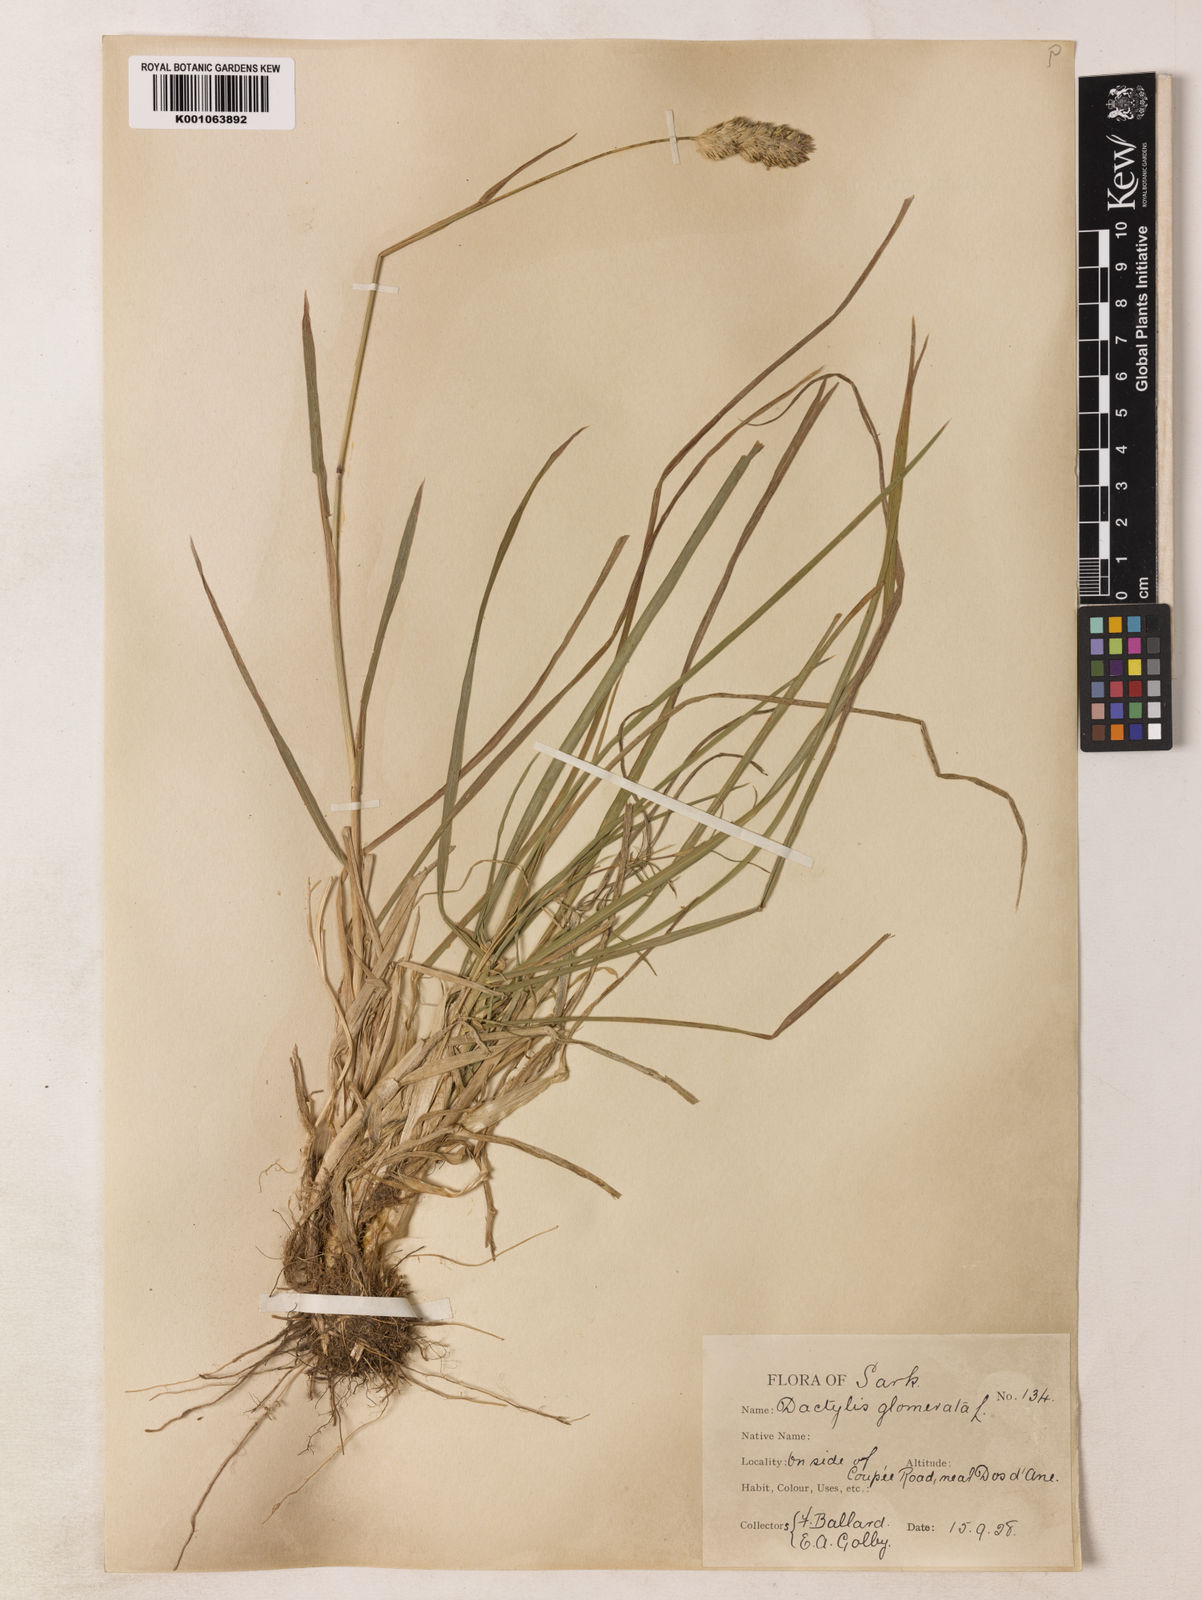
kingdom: Plantae
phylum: Tracheophyta
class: Liliopsida
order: Poales
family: Poaceae
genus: Dactylis
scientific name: Dactylis glomerata
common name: Orchardgrass
